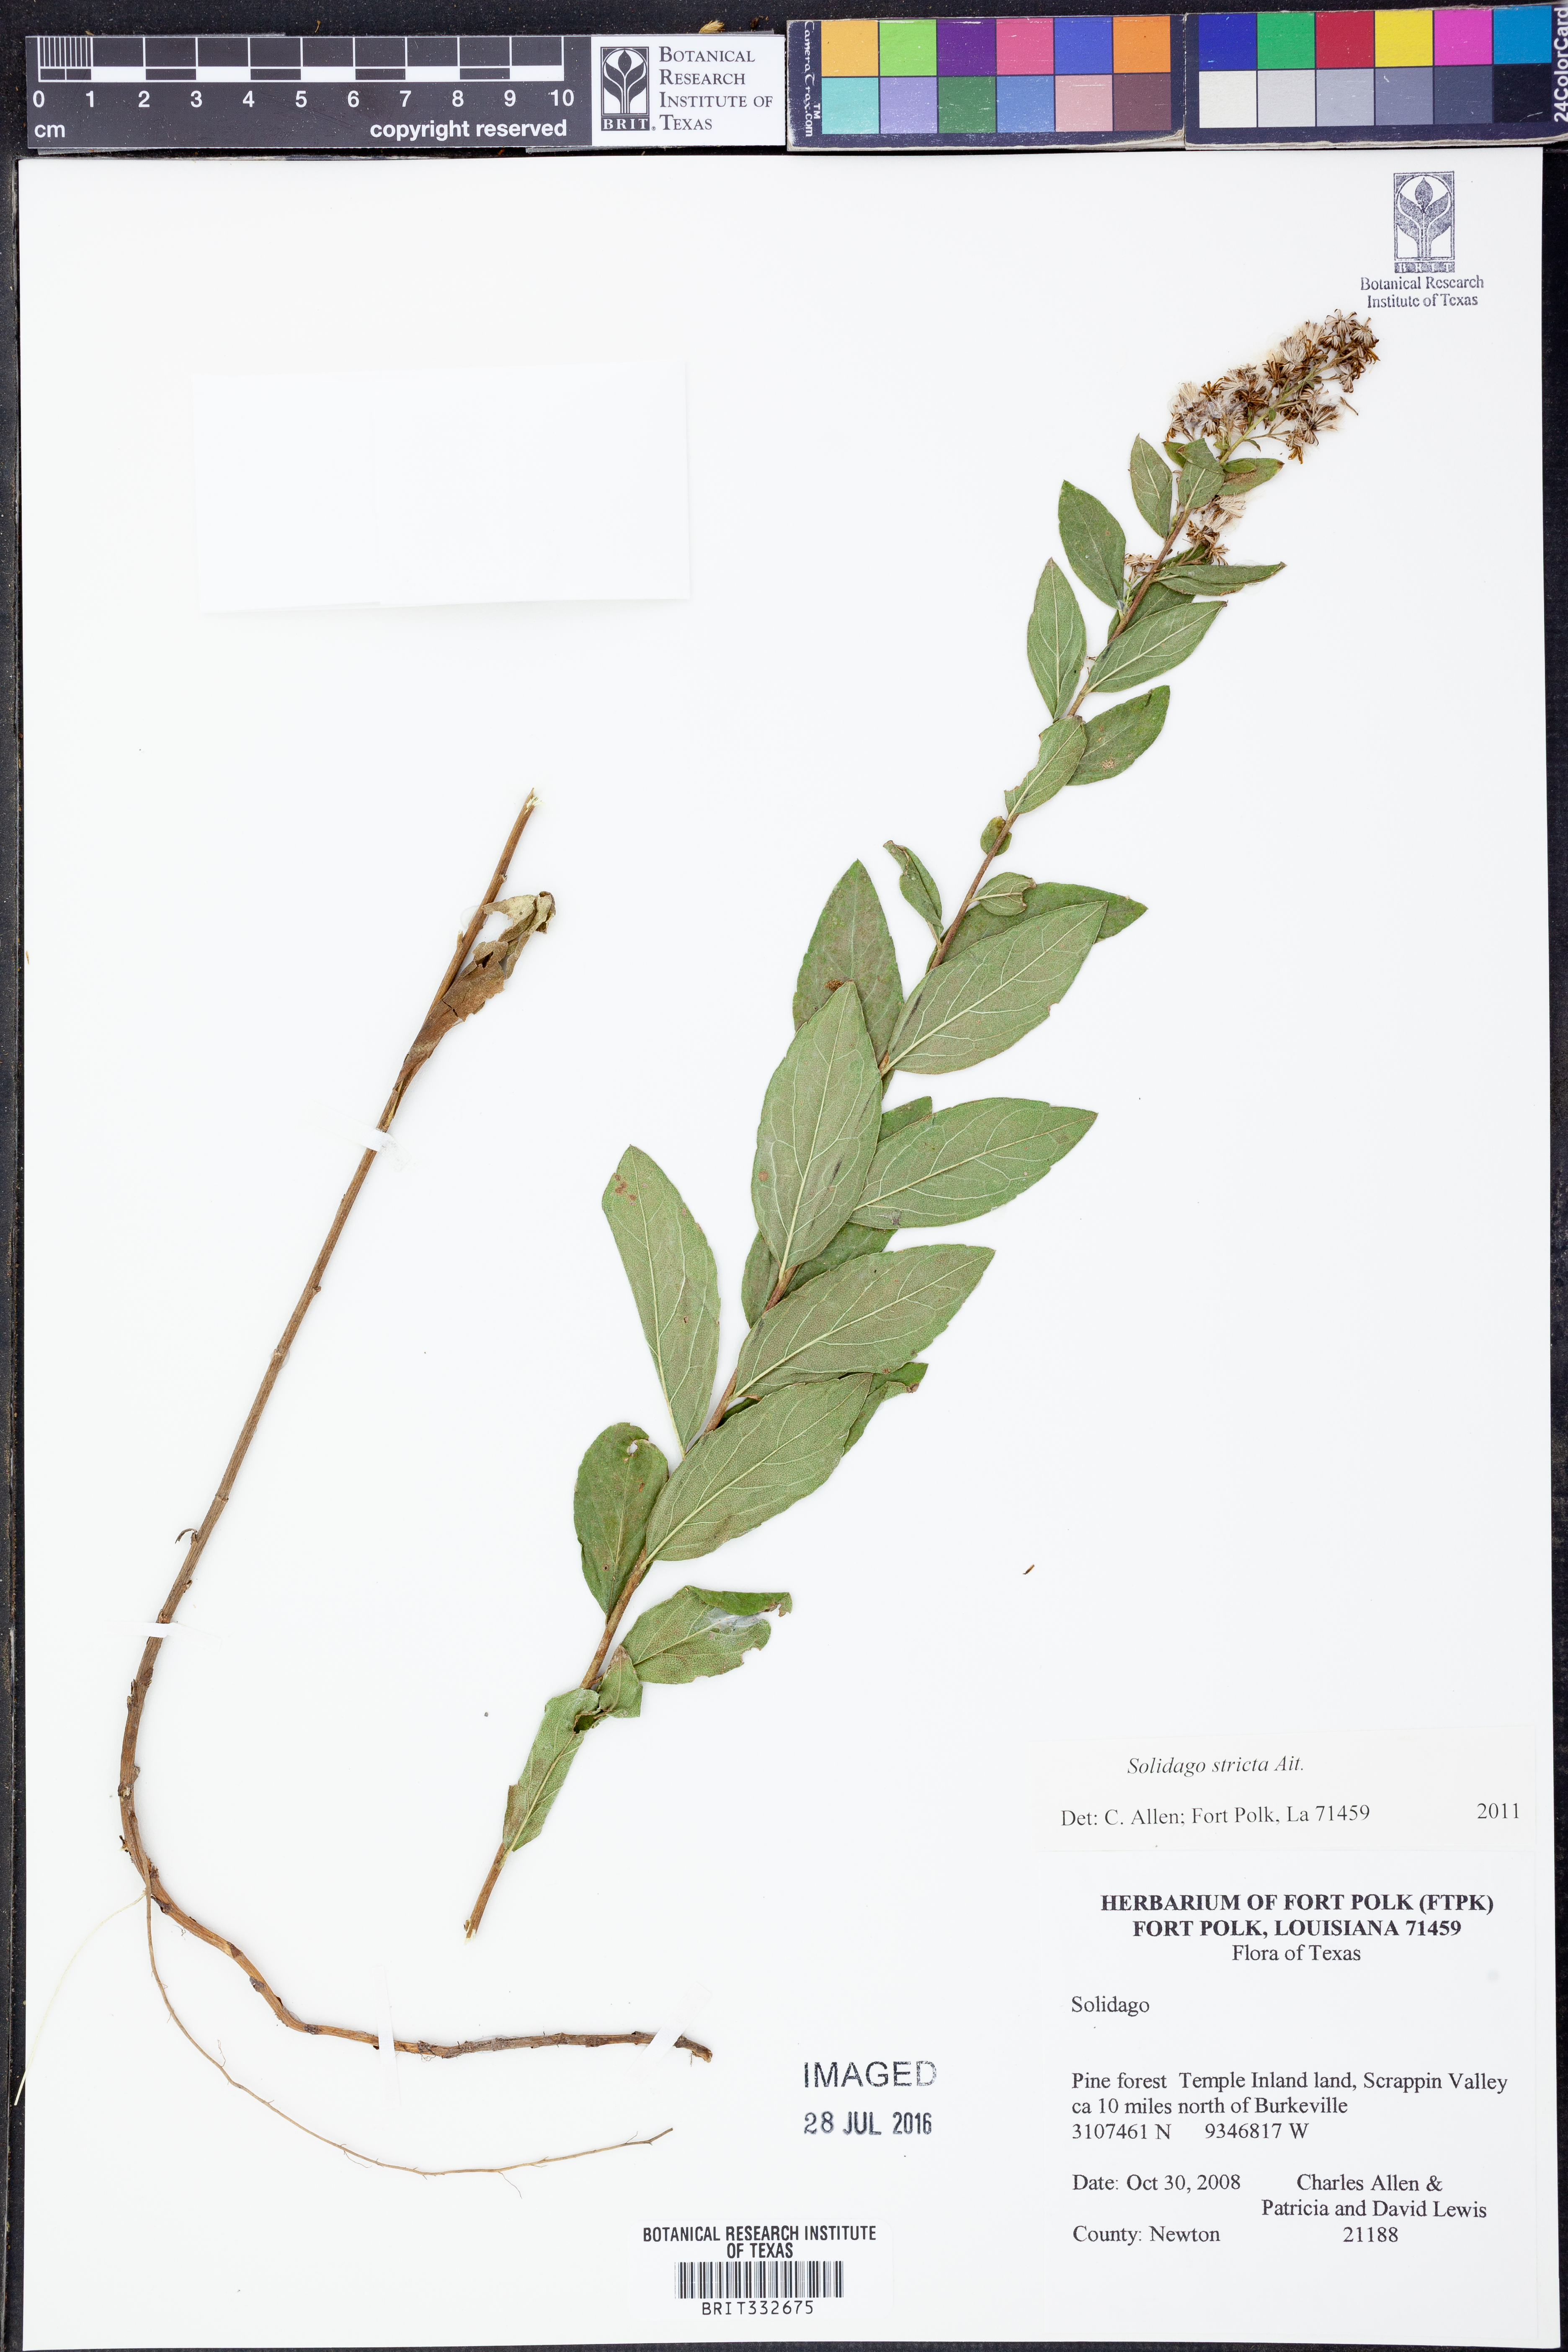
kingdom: Plantae
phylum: Tracheophyta
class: Magnoliopsida
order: Asterales
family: Asteraceae
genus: Solidago
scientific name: Solidago stricta
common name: Pine barren bog goldenrod
